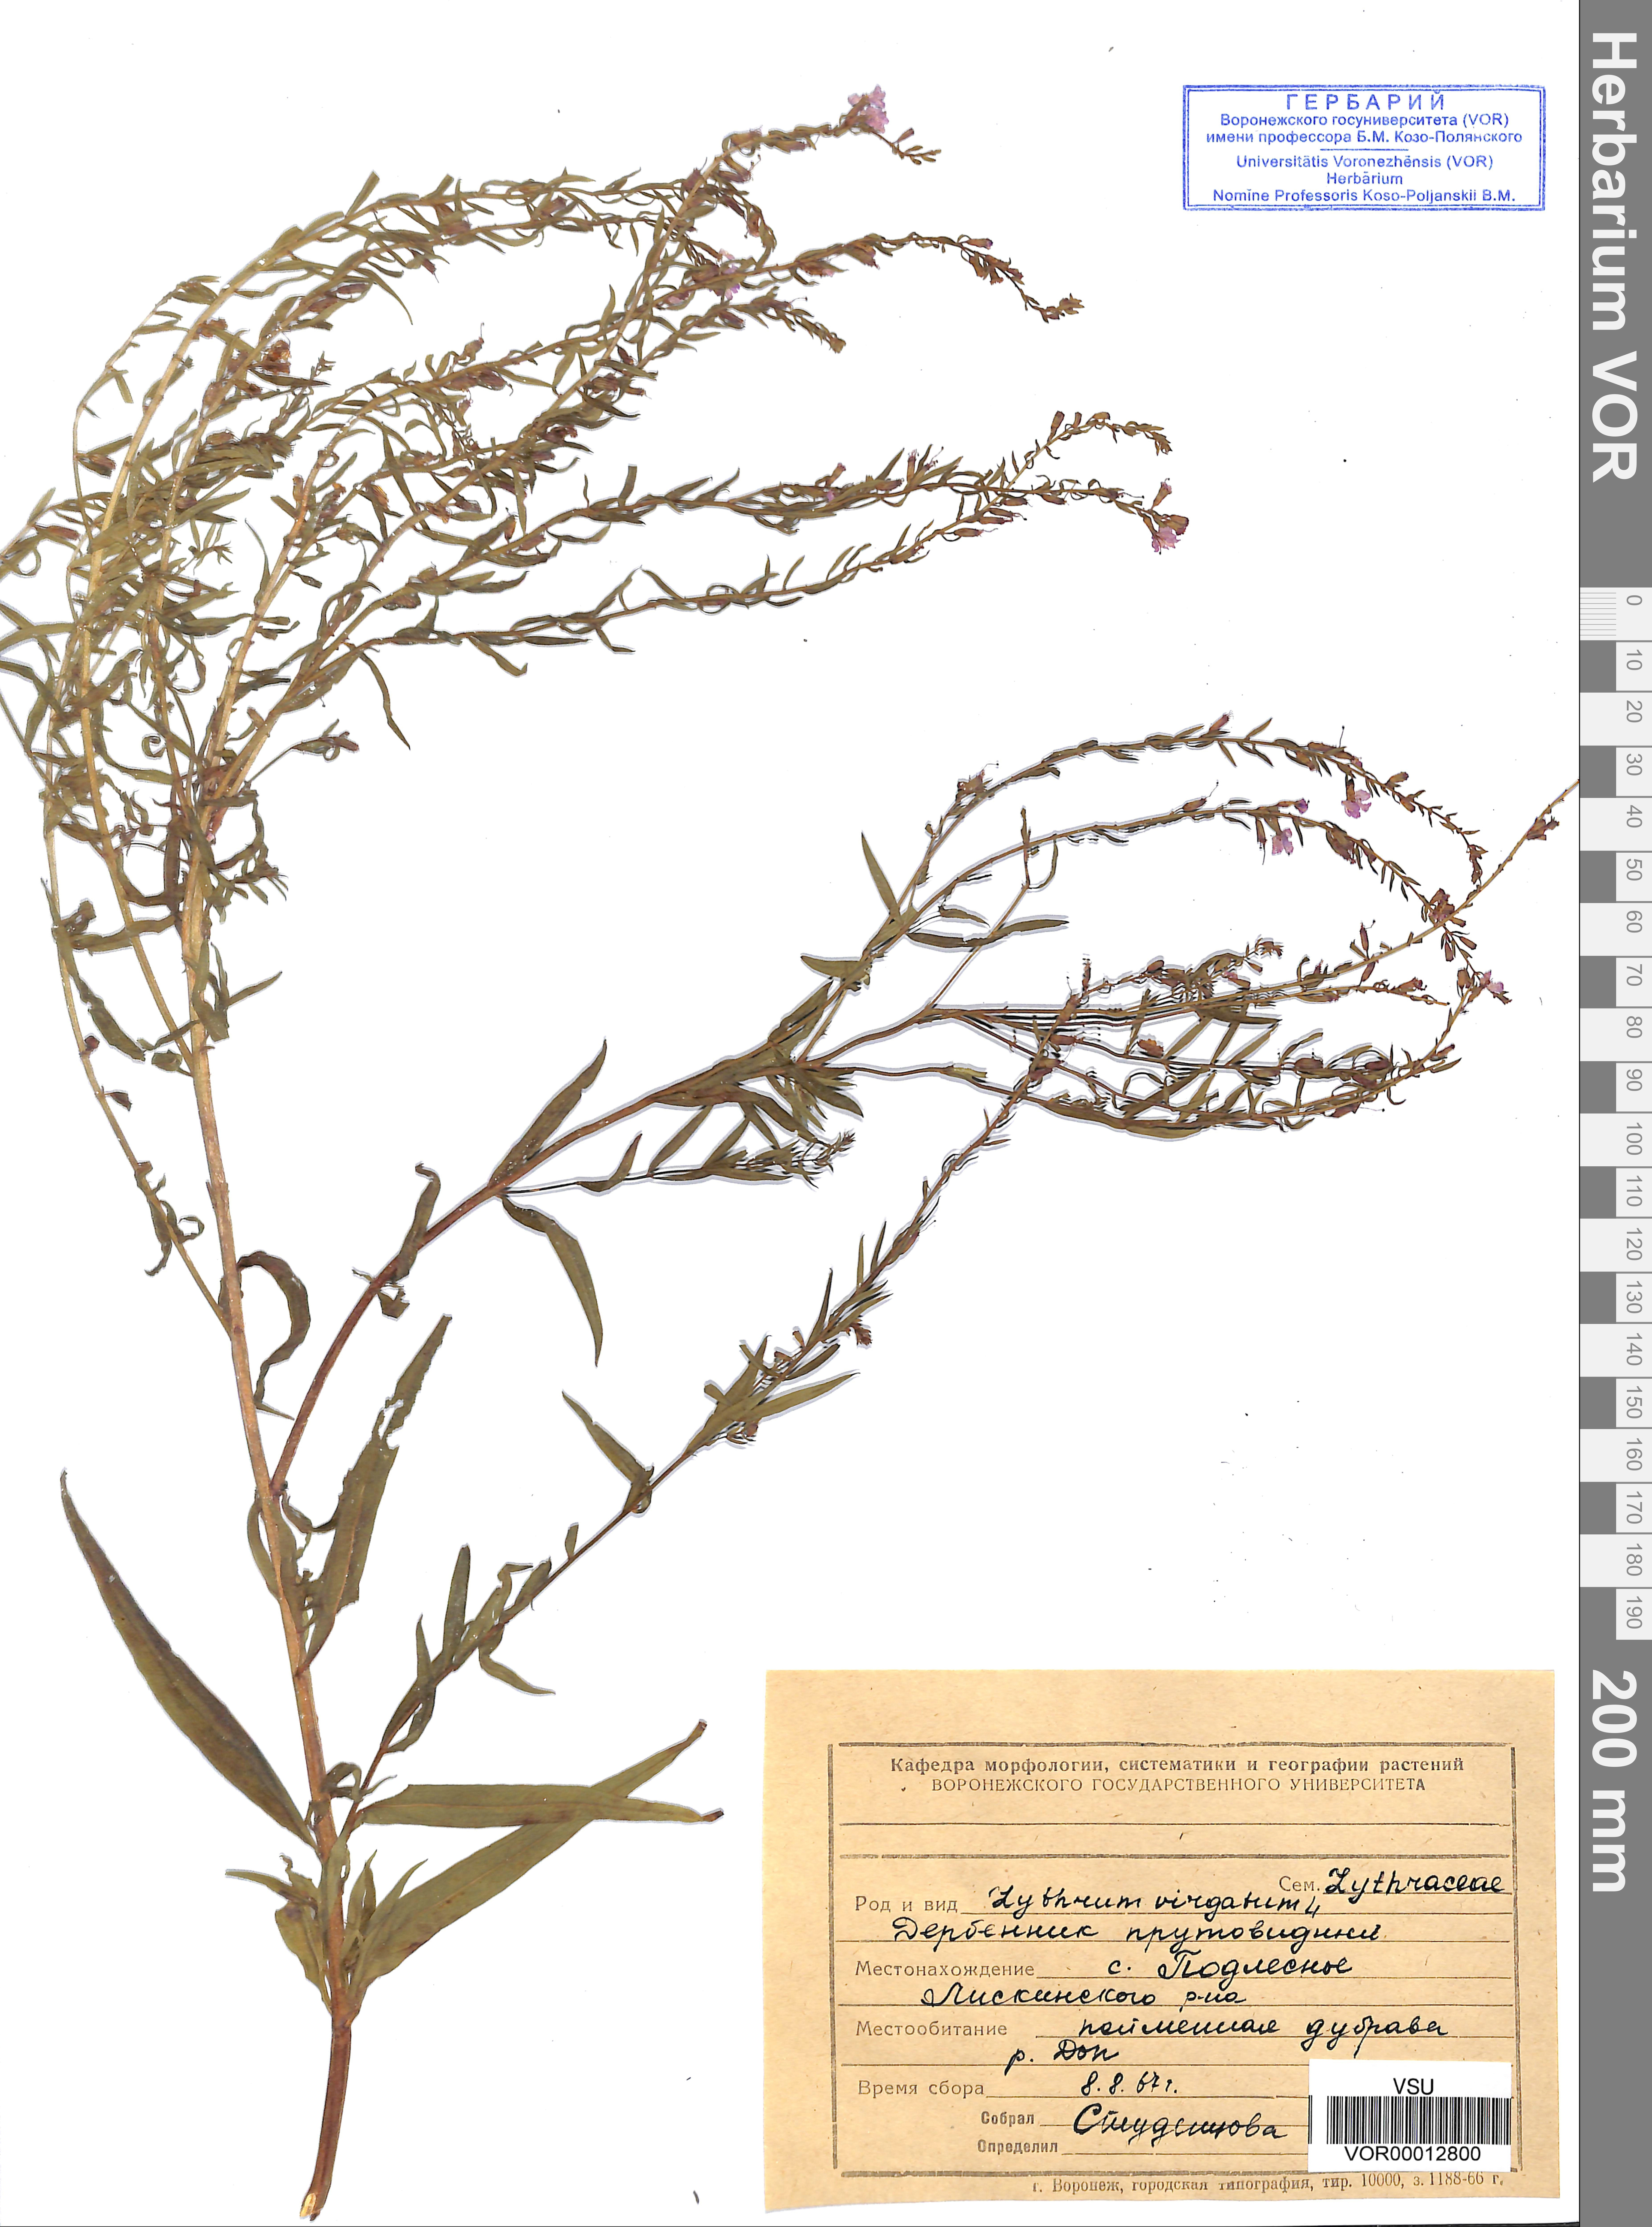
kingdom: Plantae
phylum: Tracheophyta
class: Magnoliopsida
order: Myrtales
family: Lythraceae
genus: Lythrum
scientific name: Lythrum virgatum
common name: European wand loosestrife
